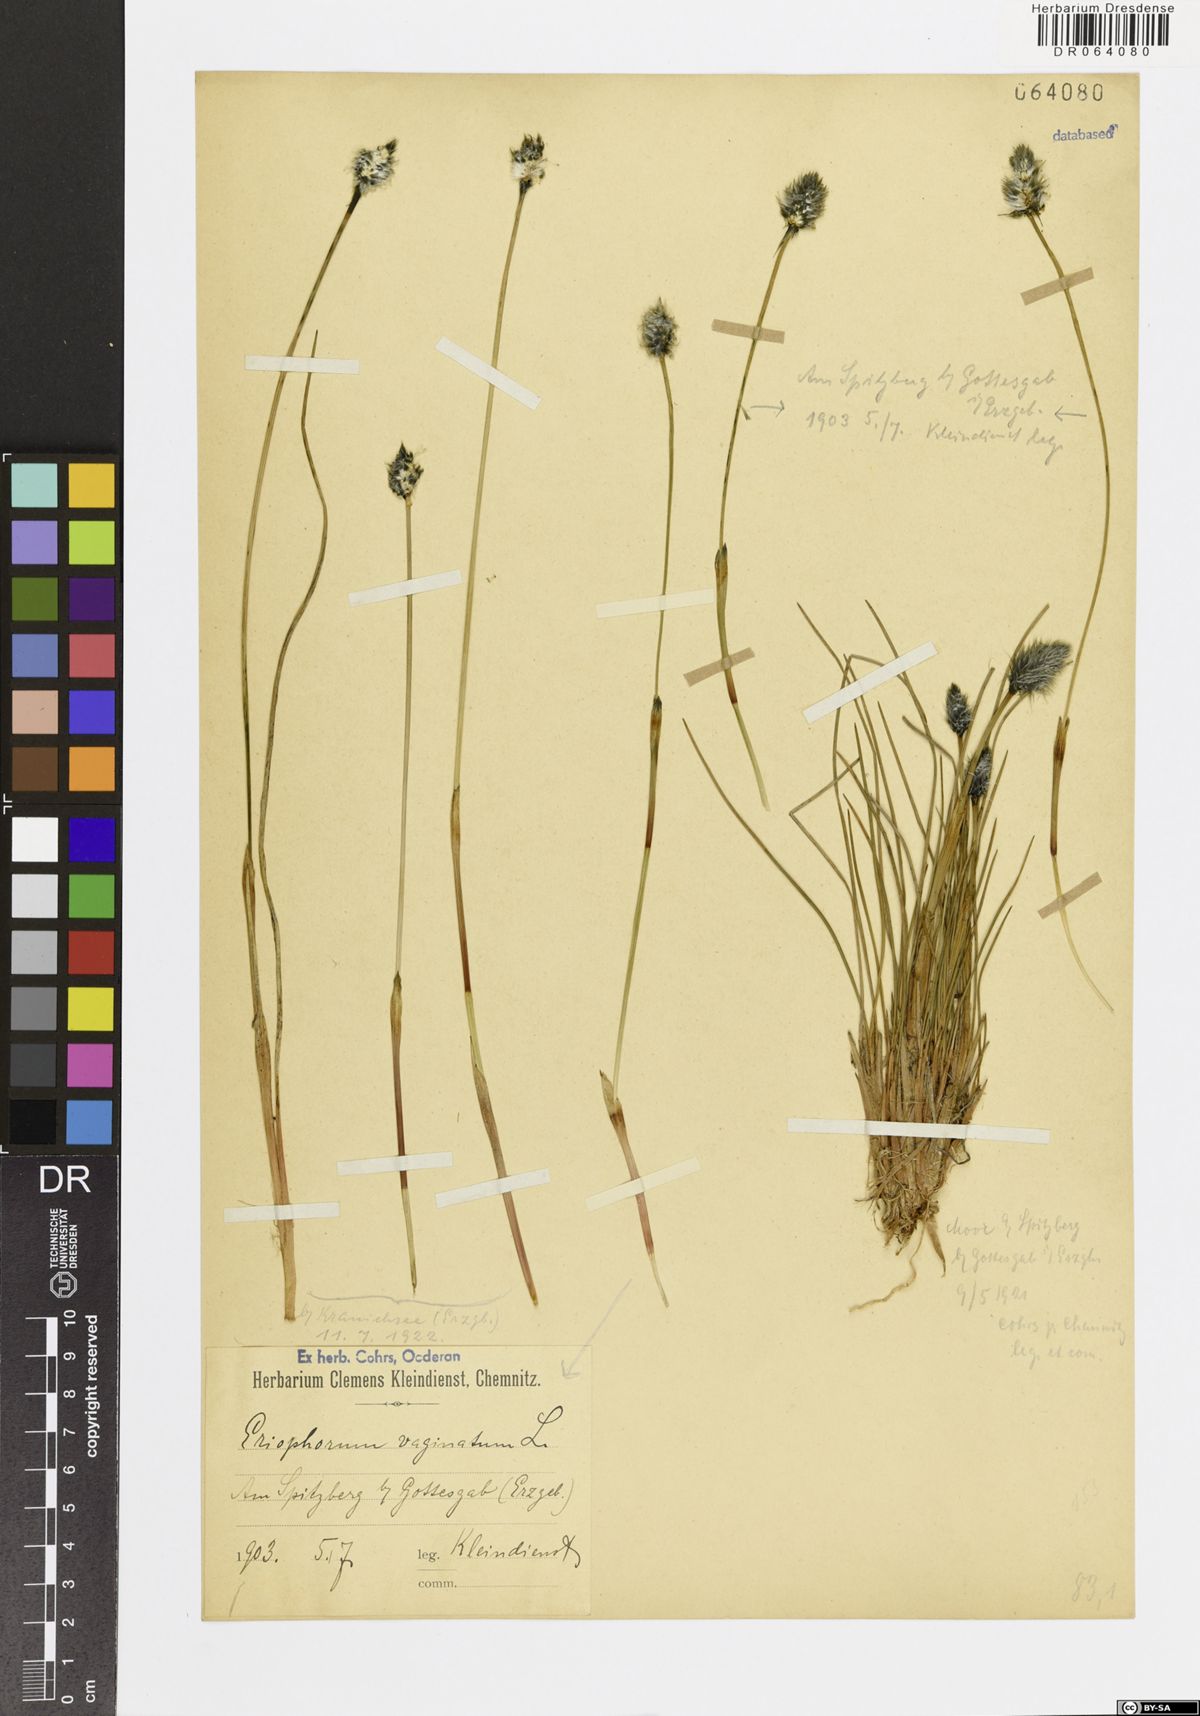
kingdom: Plantae
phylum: Tracheophyta
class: Liliopsida
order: Poales
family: Cyperaceae
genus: Eriophorum
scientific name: Eriophorum vaginatum
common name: Hare's-tail cottongrass
